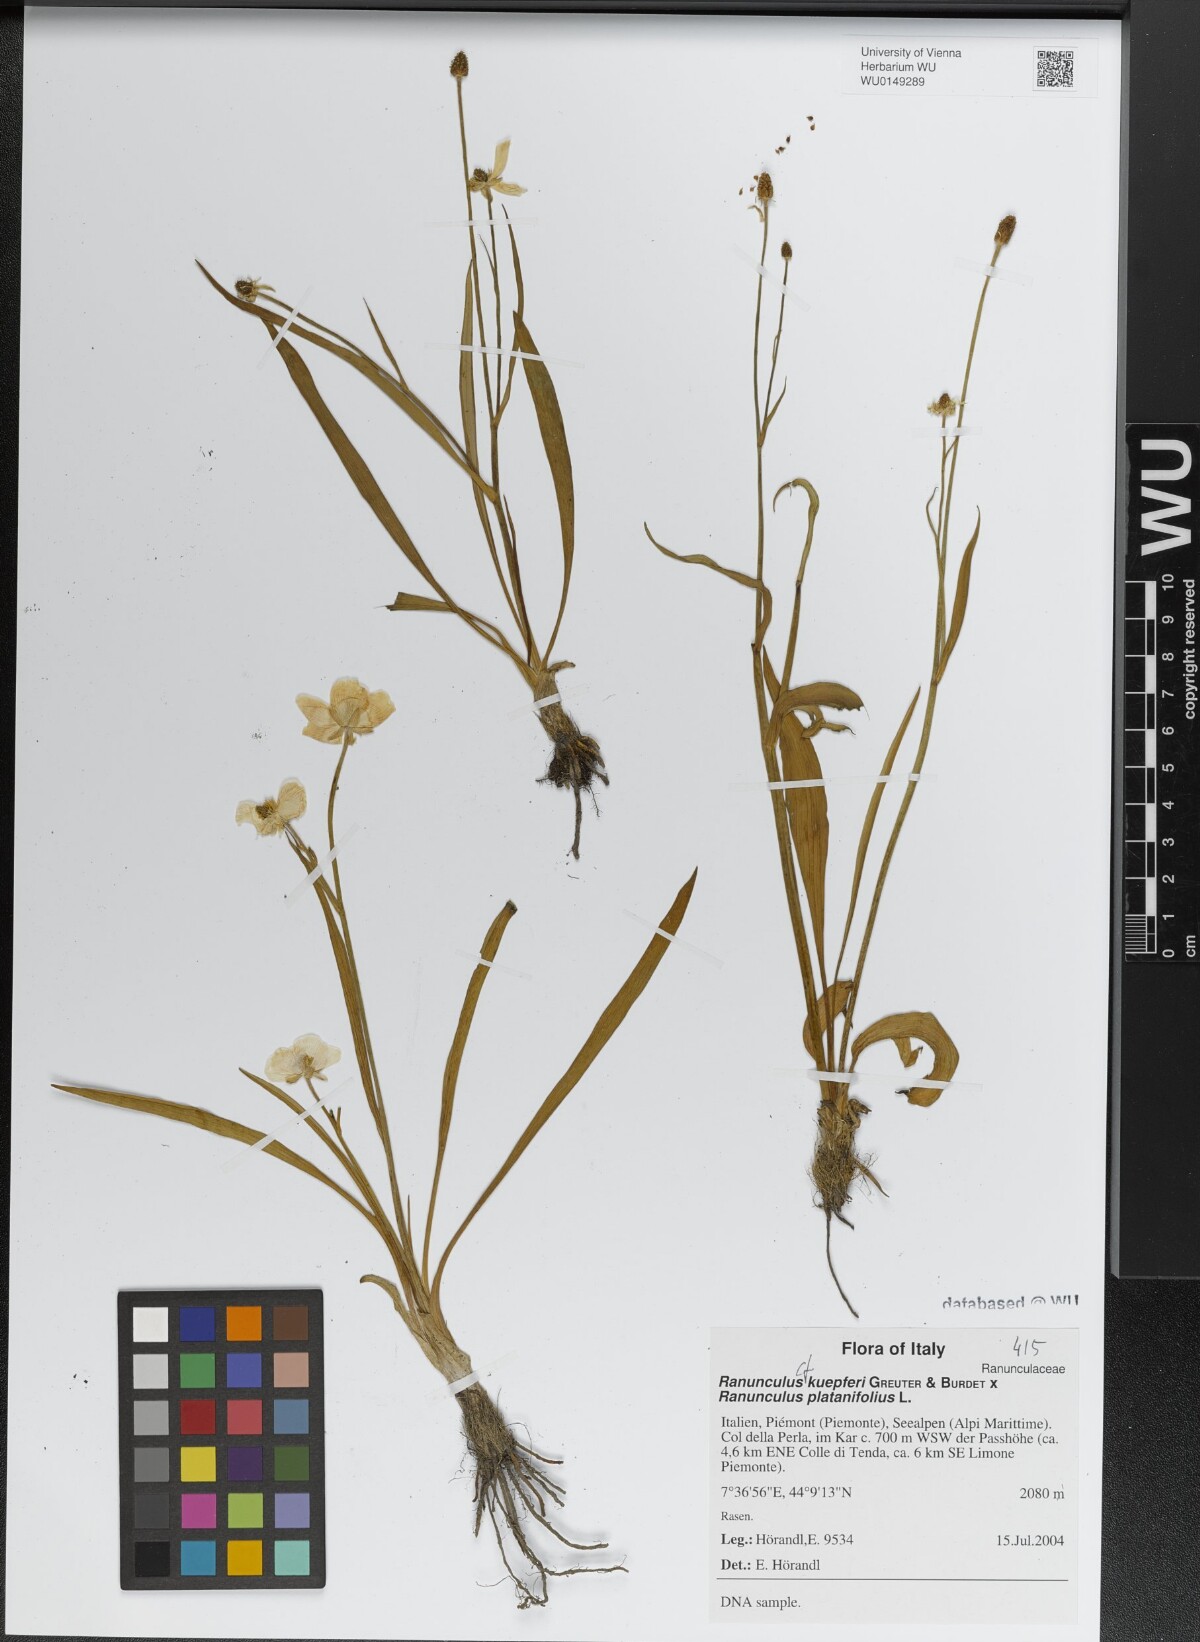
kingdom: Plantae
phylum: Tracheophyta
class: Magnoliopsida
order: Ranunculales
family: Ranunculaceae
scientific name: Ranunculaceae
